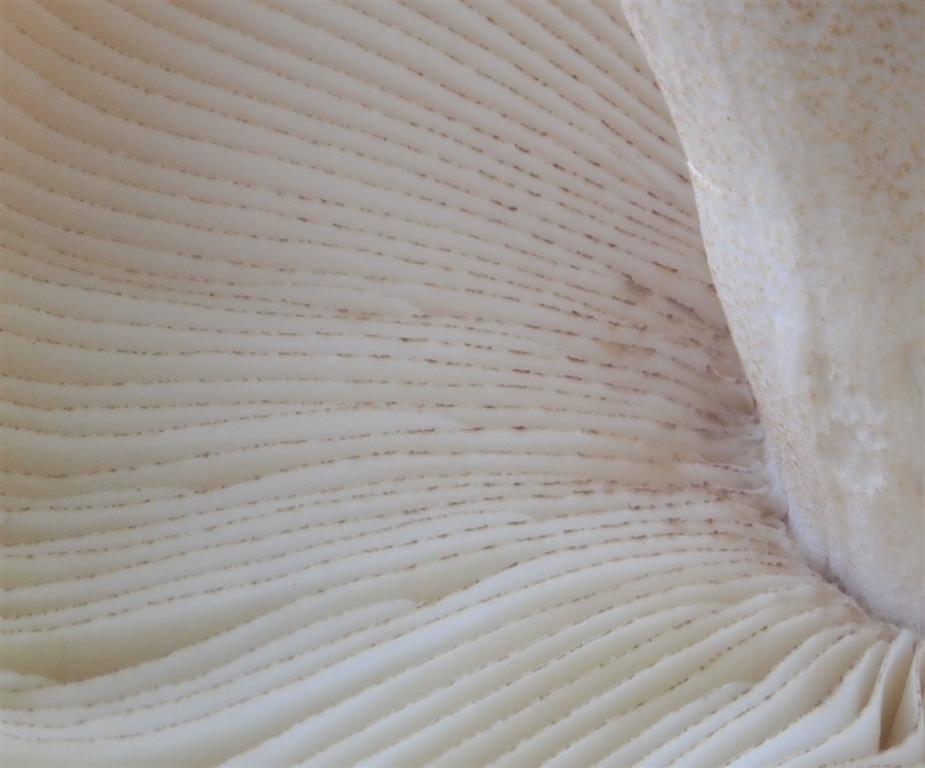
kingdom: Fungi
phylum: Basidiomycota
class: Agaricomycetes
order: Russulales
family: Russulaceae
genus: Russula
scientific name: Russula illota
